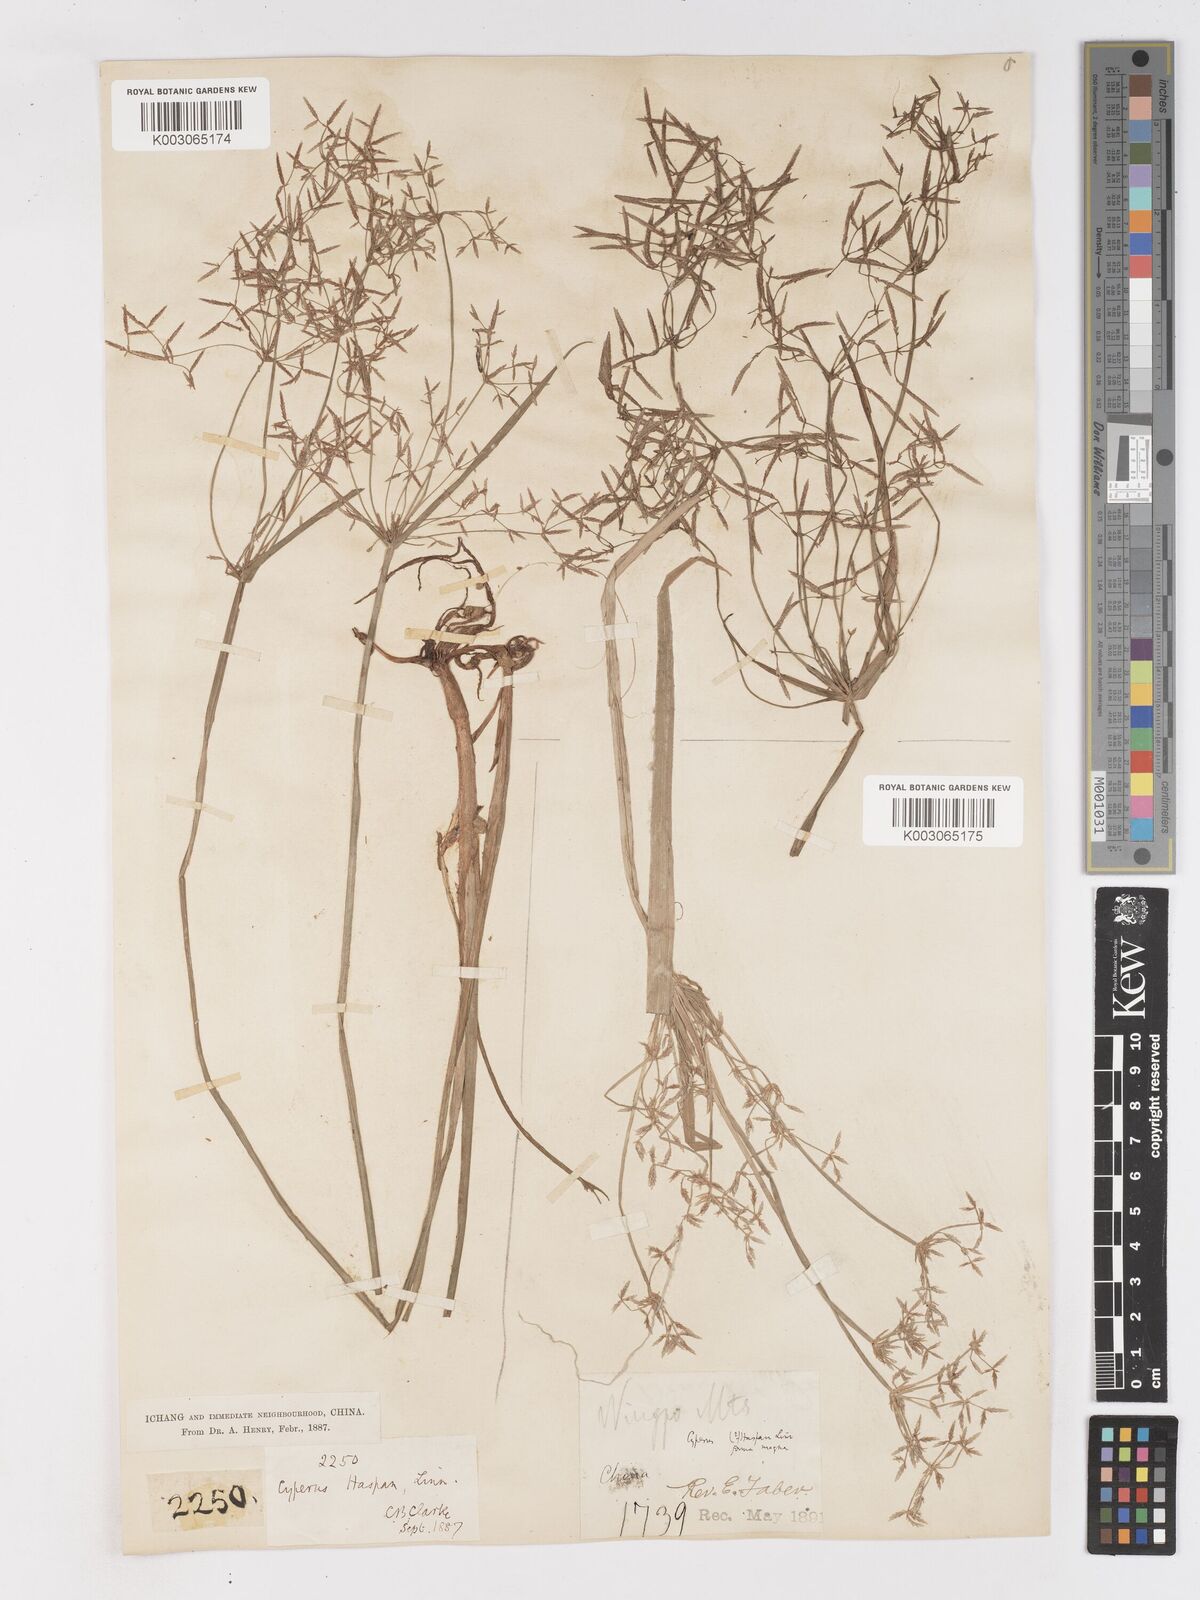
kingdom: Plantae
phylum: Tracheophyta
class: Liliopsida
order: Poales
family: Cyperaceae
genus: Cyperus
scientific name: Cyperus haspan
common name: Haspan flatsedge
